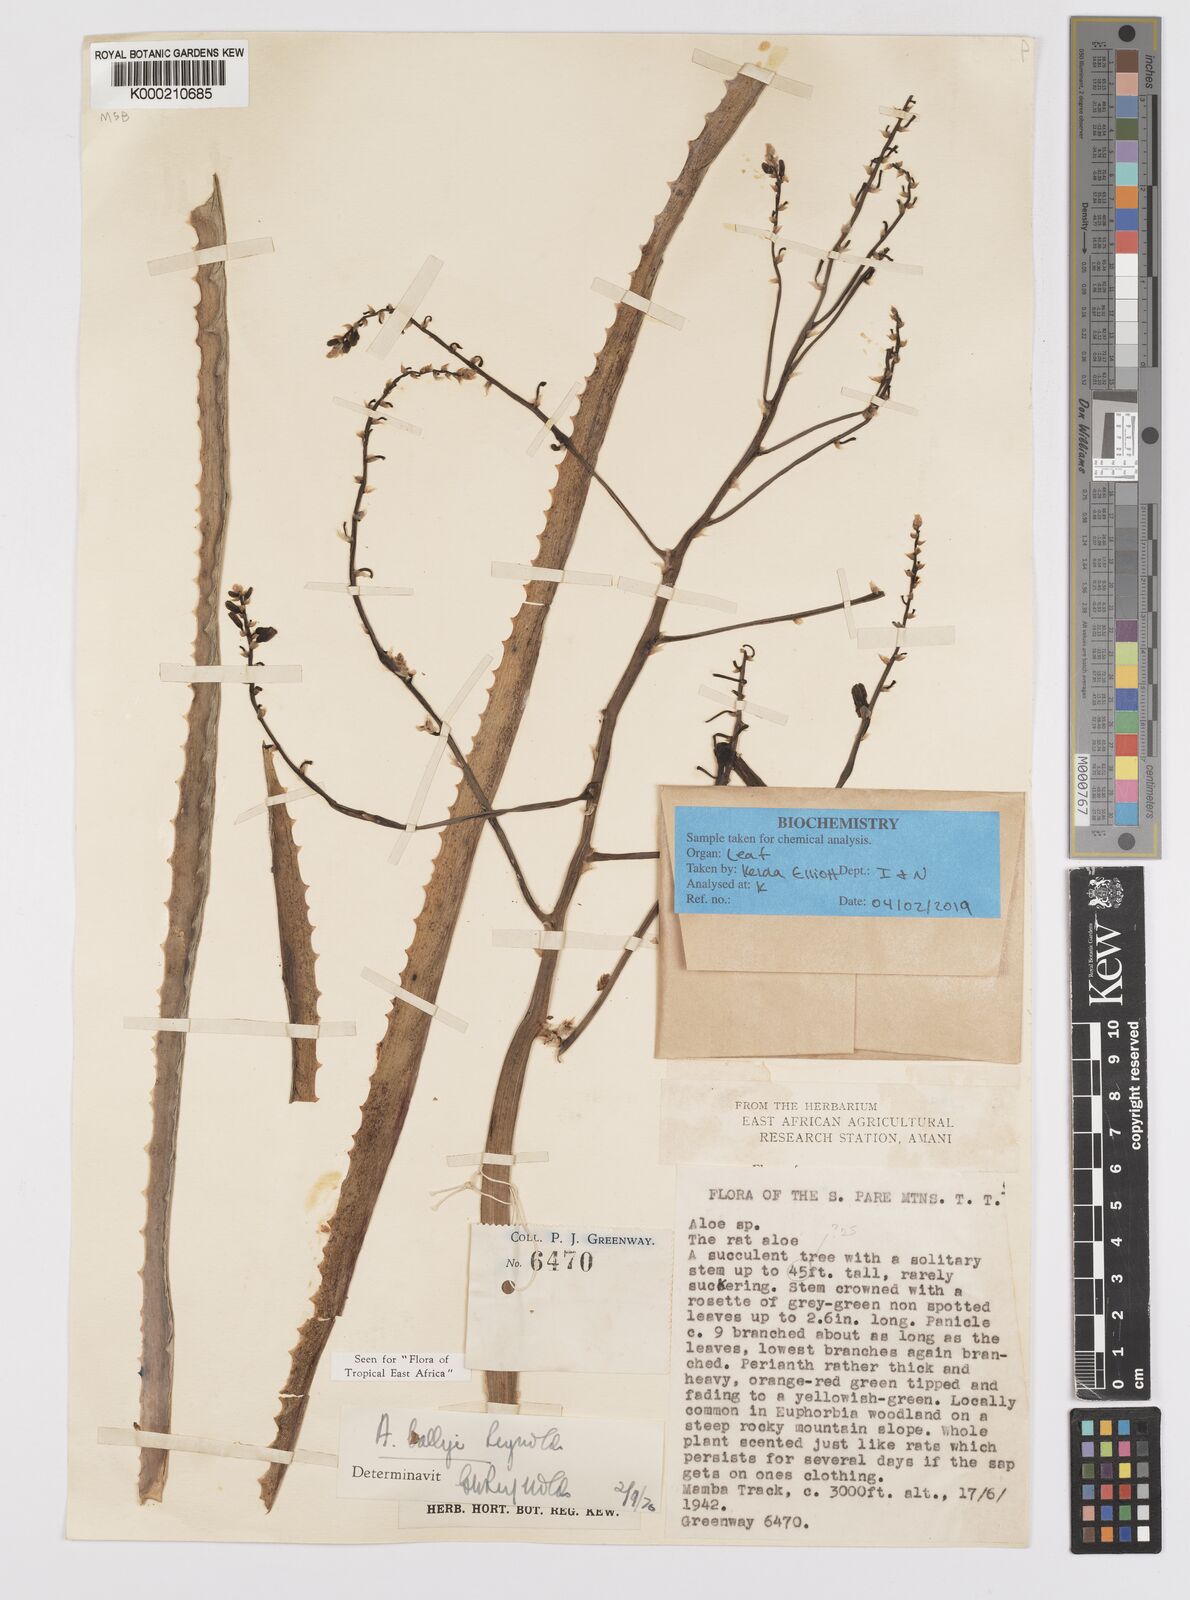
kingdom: Plantae
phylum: Tracheophyta
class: Liliopsida
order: Asparagales
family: Asphodelaceae
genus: Aloe
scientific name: Aloe ballyi
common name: Rat aloe
